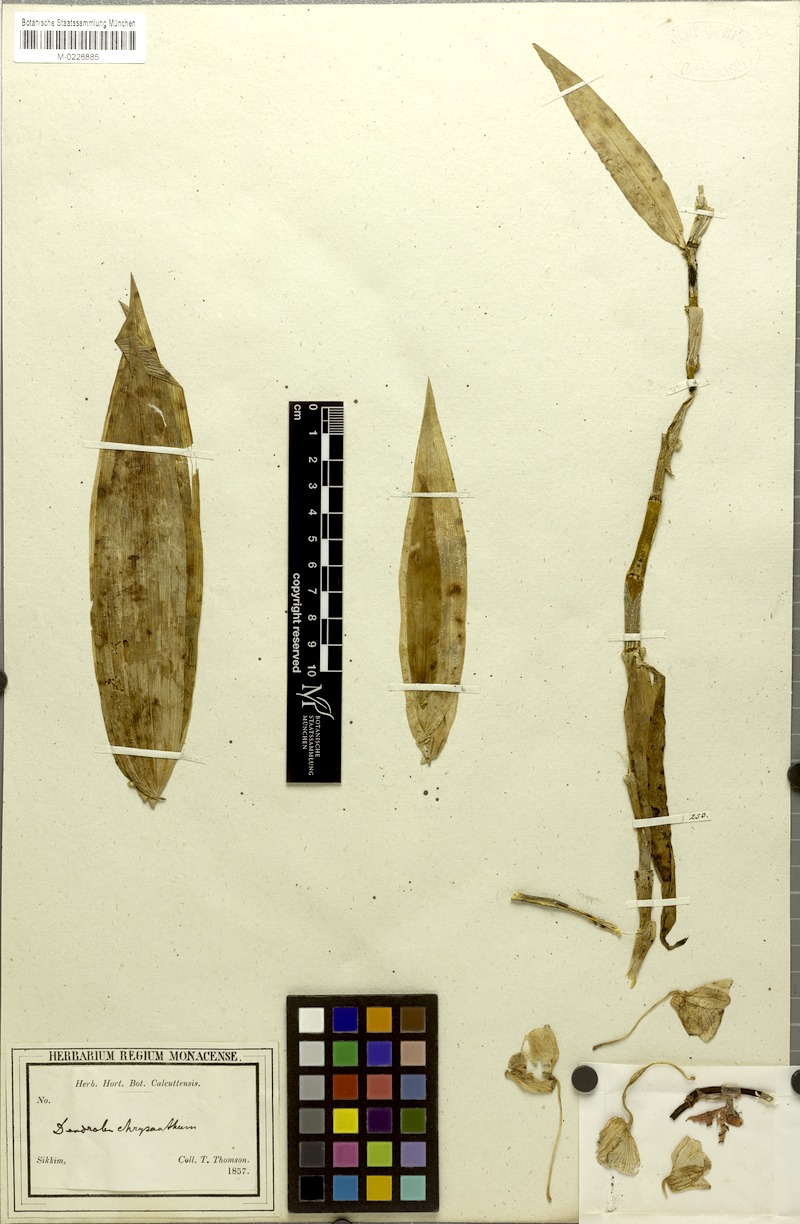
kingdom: Plantae
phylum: Tracheophyta
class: Liliopsida
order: Asparagales
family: Orchidaceae
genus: Dendrobium
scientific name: Dendrobium chrysanthum
